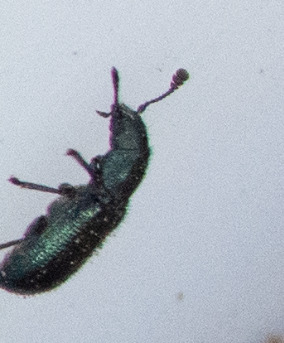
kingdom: Animalia
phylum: Arthropoda
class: Insecta
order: Coleoptera
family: Cleridae
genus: Necrobia
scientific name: Necrobia violacea
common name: Blå koprabille
